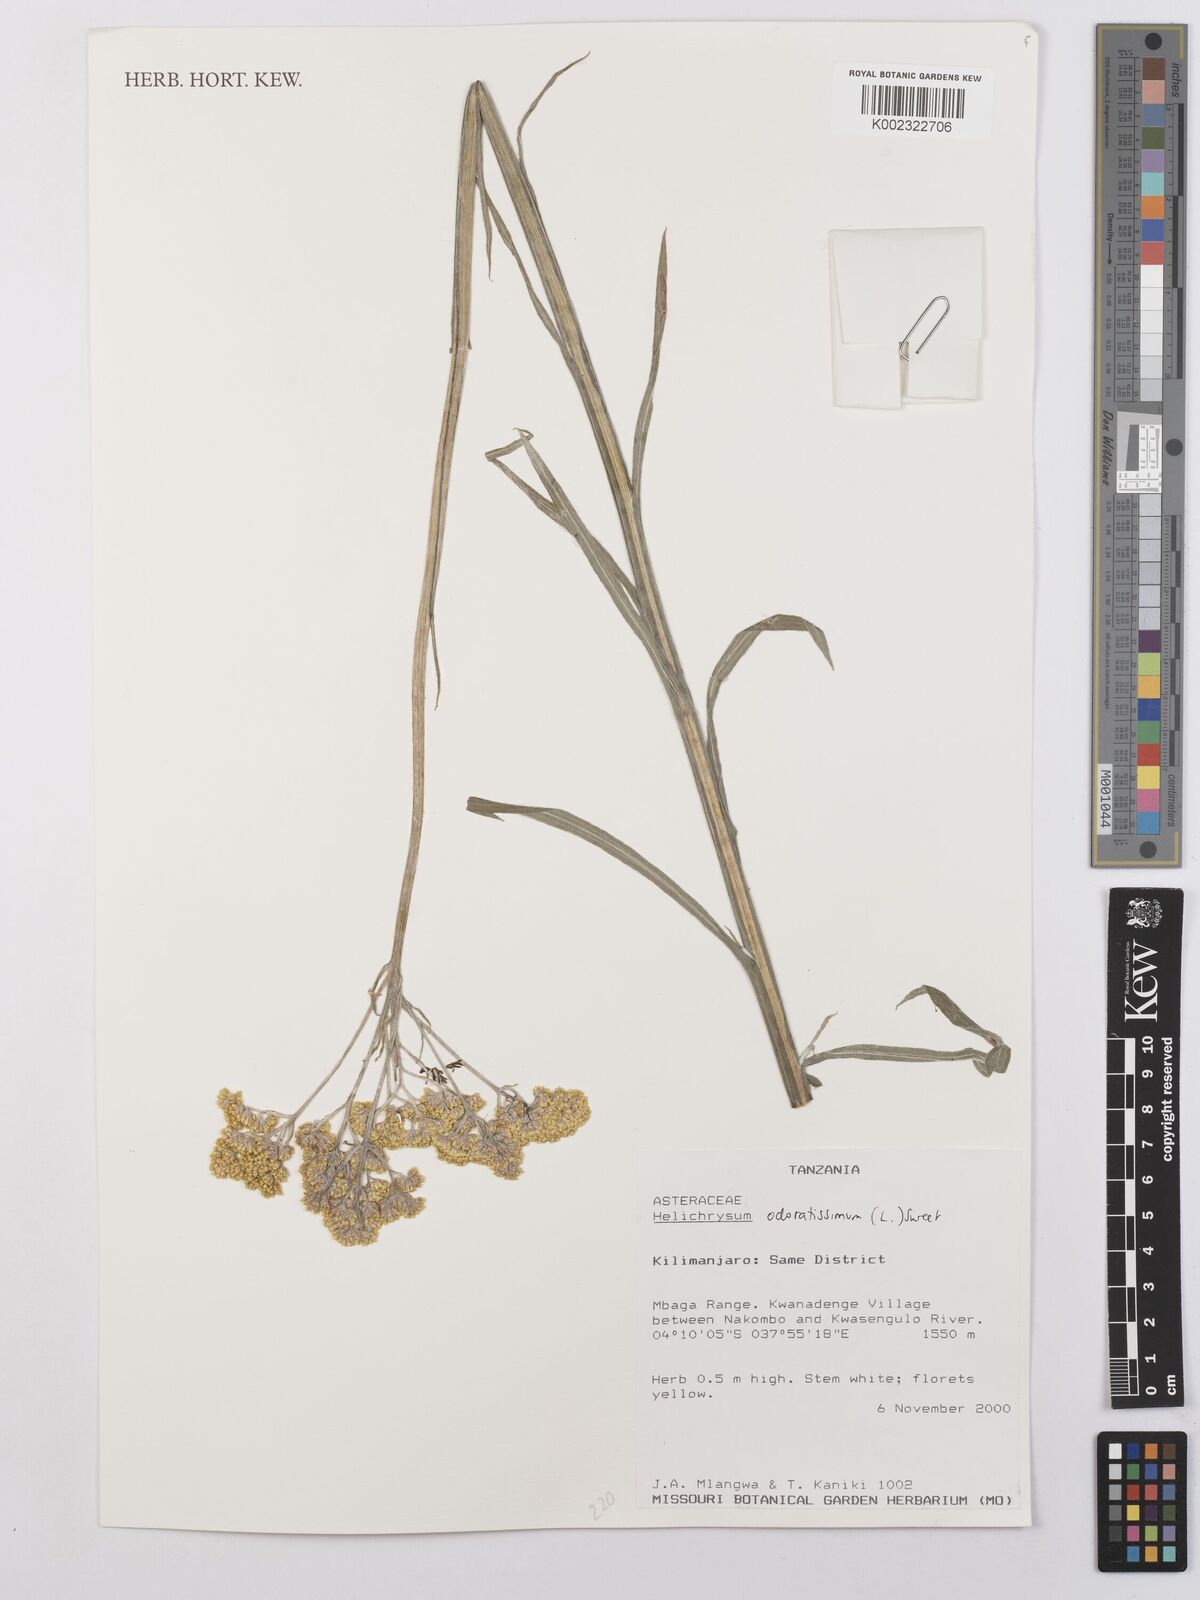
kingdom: Plantae
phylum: Tracheophyta
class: Magnoliopsida
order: Asterales
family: Asteraceae
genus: Helichrysum
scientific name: Helichrysum odoratissimum
